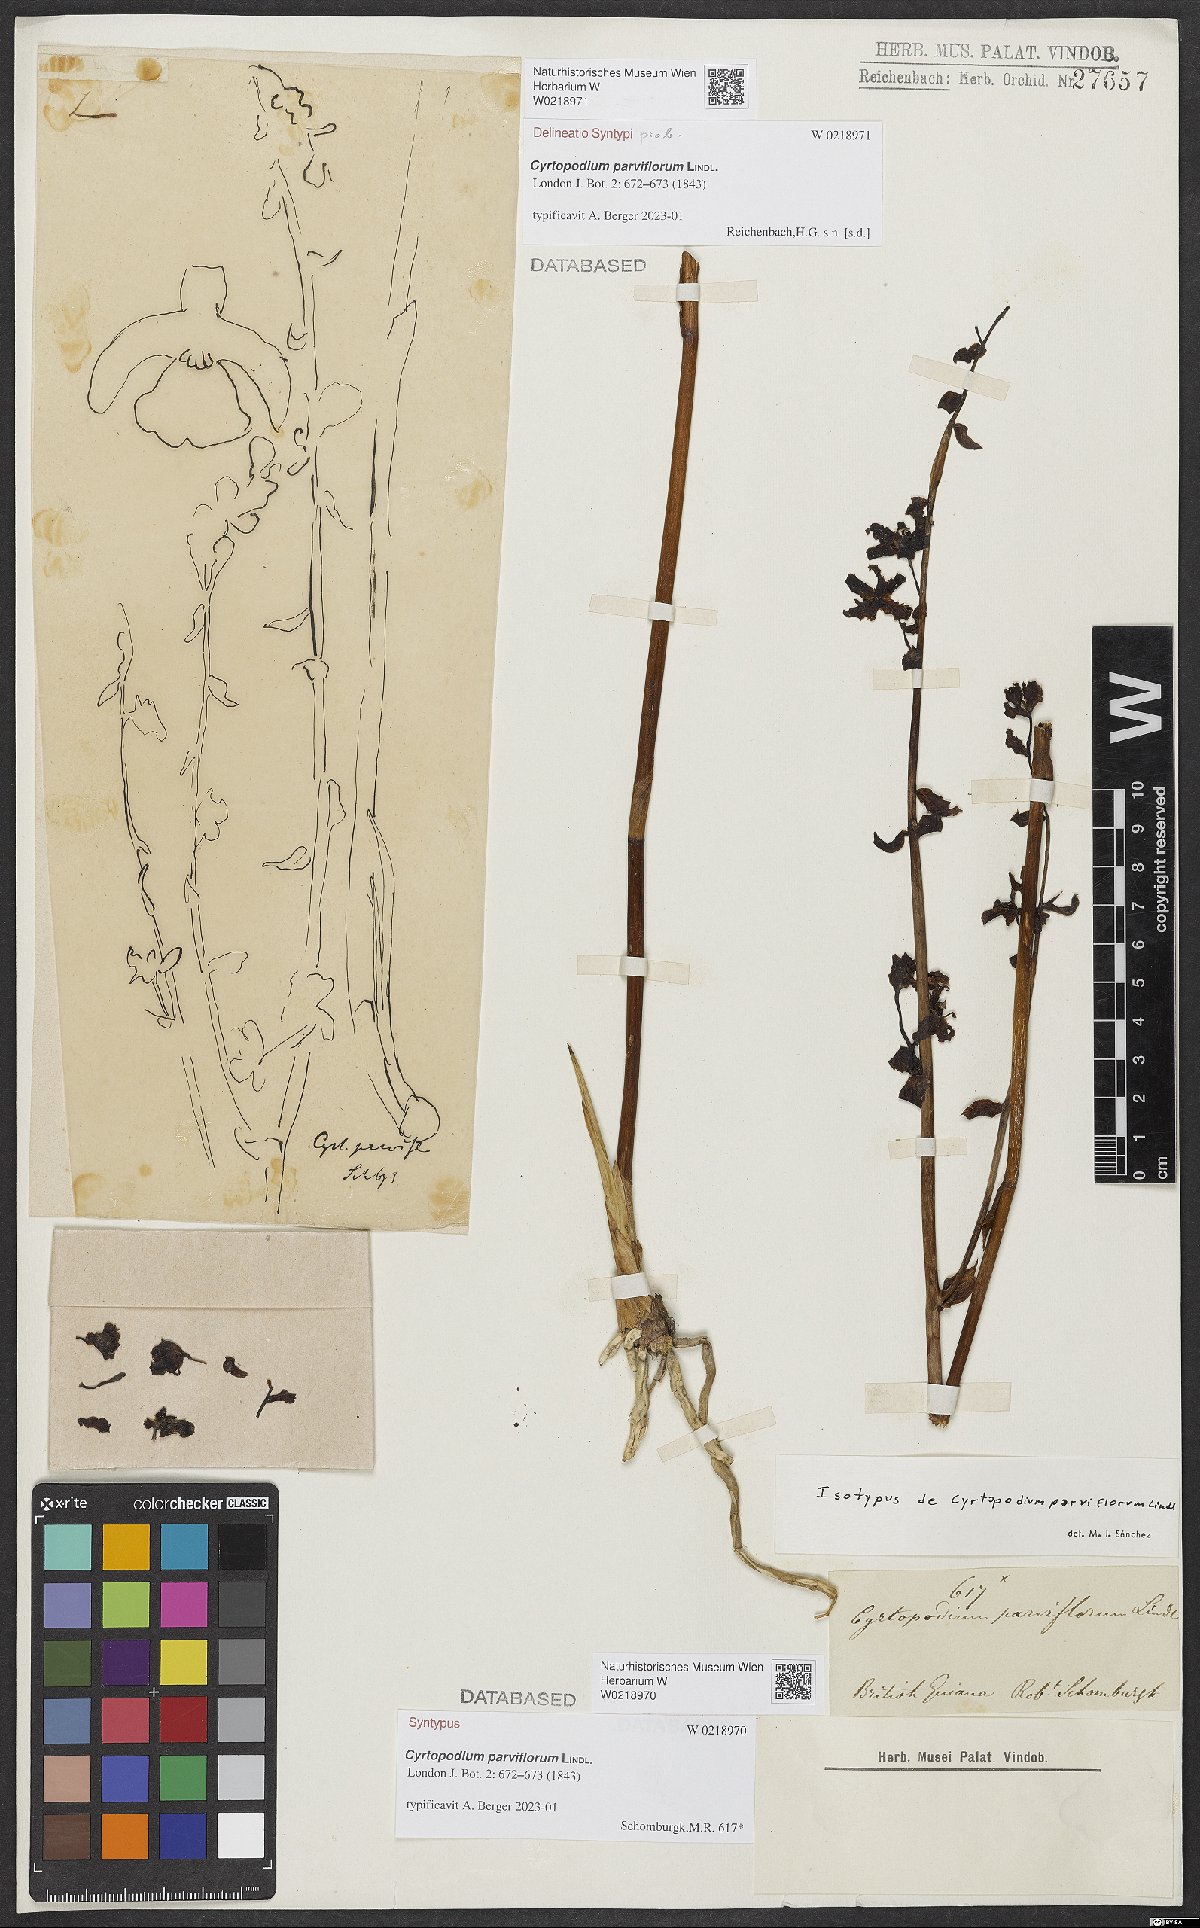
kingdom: Plantae
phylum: Tracheophyta
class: Liliopsida
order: Asparagales
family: Orchidaceae
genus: Cyrtopodium
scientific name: Cyrtopodium parviflorum
